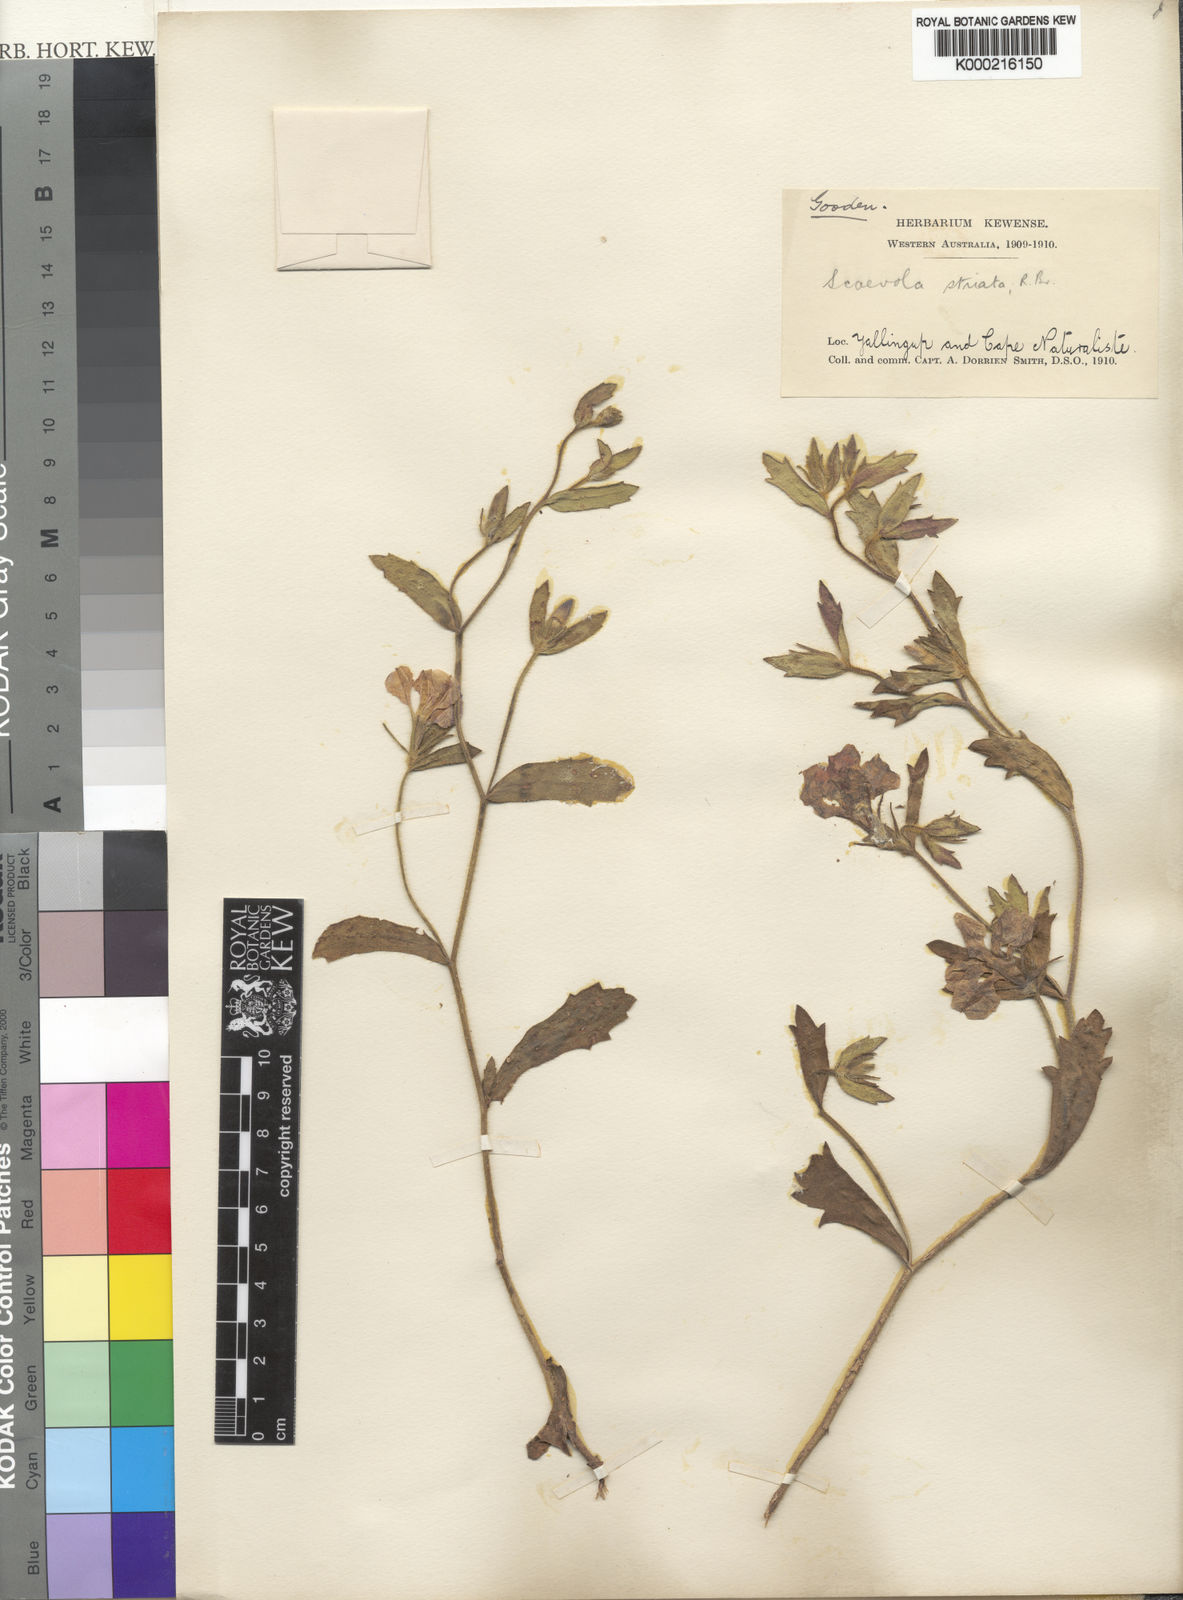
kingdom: Plantae
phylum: Tracheophyta
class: Magnoliopsida
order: Asterales
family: Goodeniaceae
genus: Scaevola
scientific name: Scaevola striata
